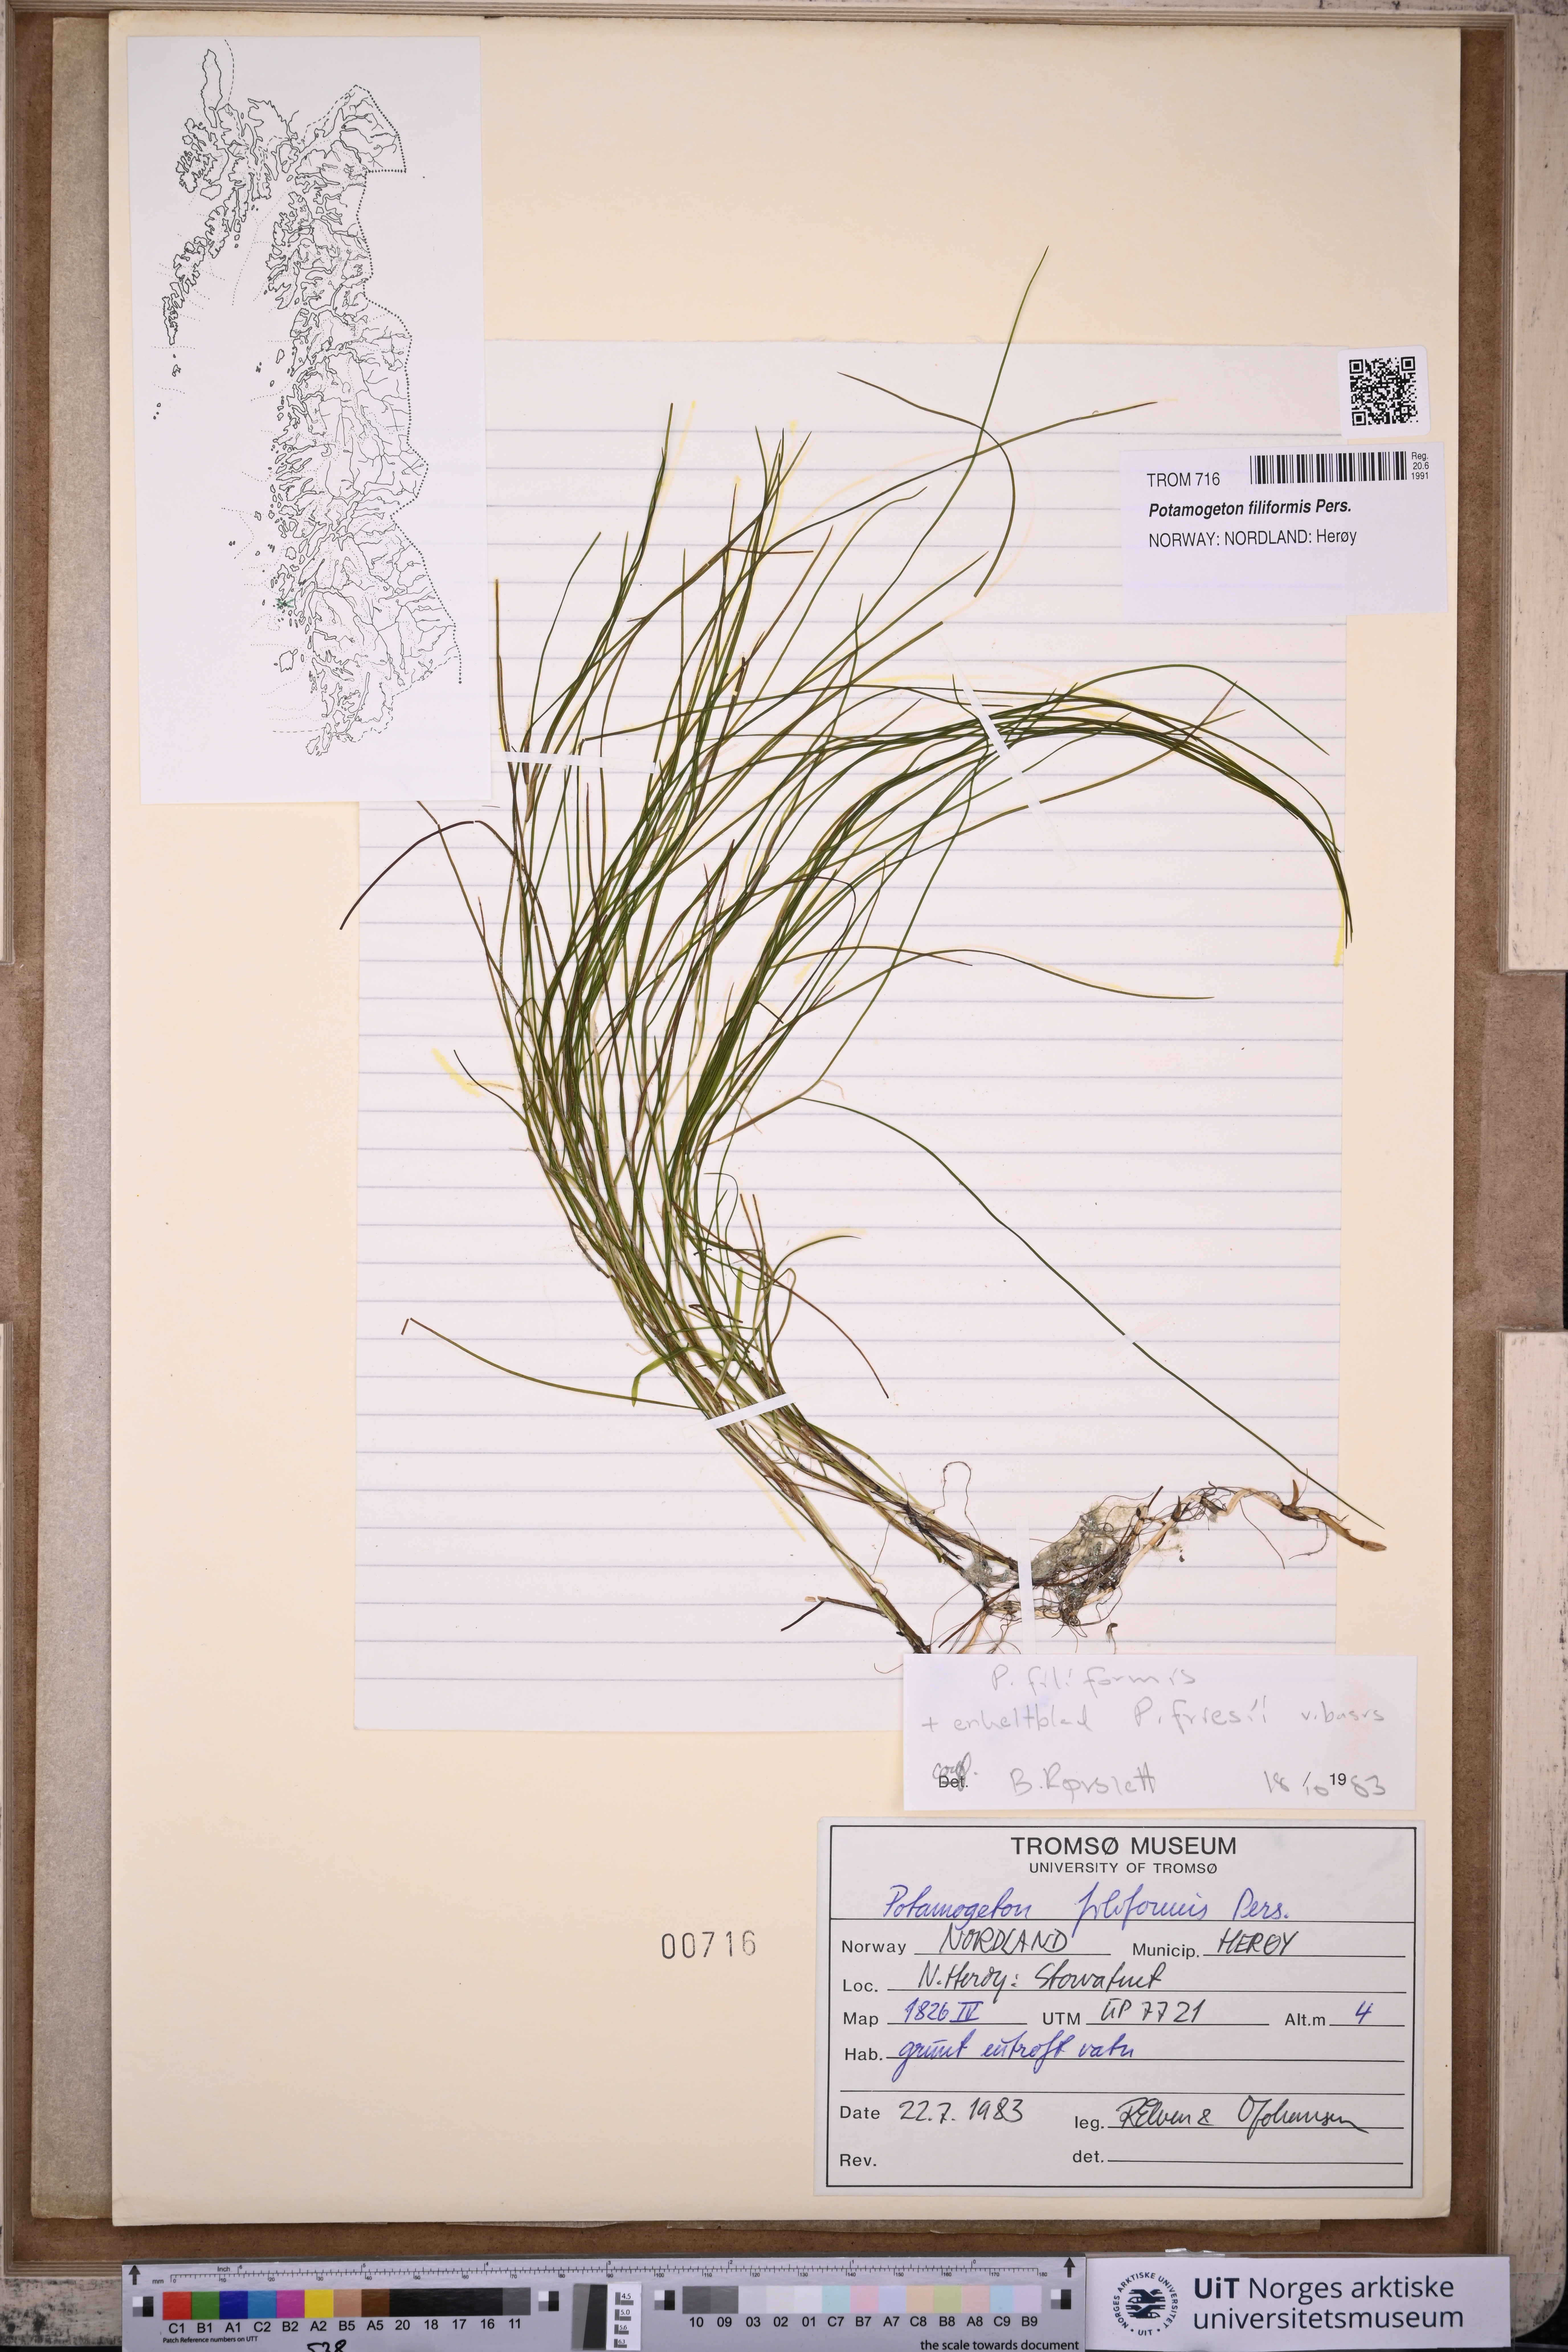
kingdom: Plantae
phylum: Tracheophyta
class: Liliopsida
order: Alismatales
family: Potamogetonaceae
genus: Stuckenia
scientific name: Stuckenia filiformis
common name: Alpine thread-leaved pondweed
